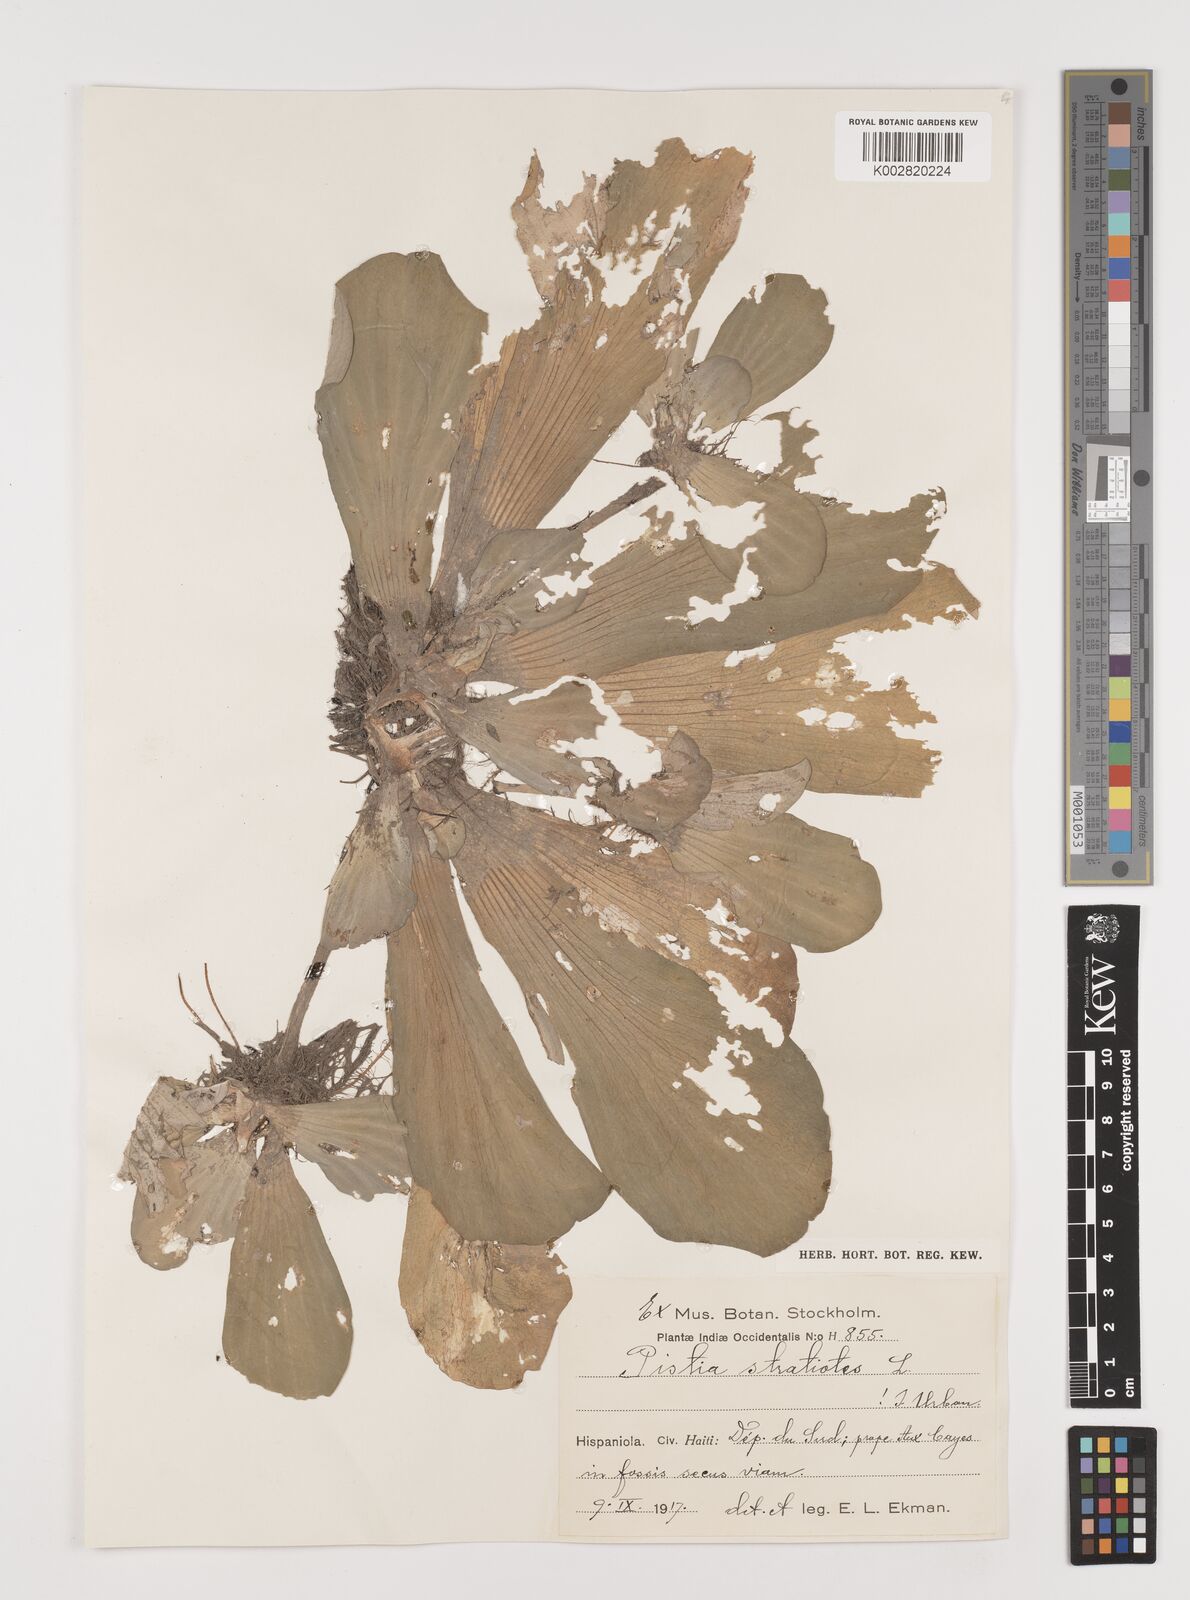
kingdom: Plantae
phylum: Tracheophyta
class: Liliopsida
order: Alismatales
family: Araceae
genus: Pistia
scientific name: Pistia stratiotes
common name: Water lettuce
